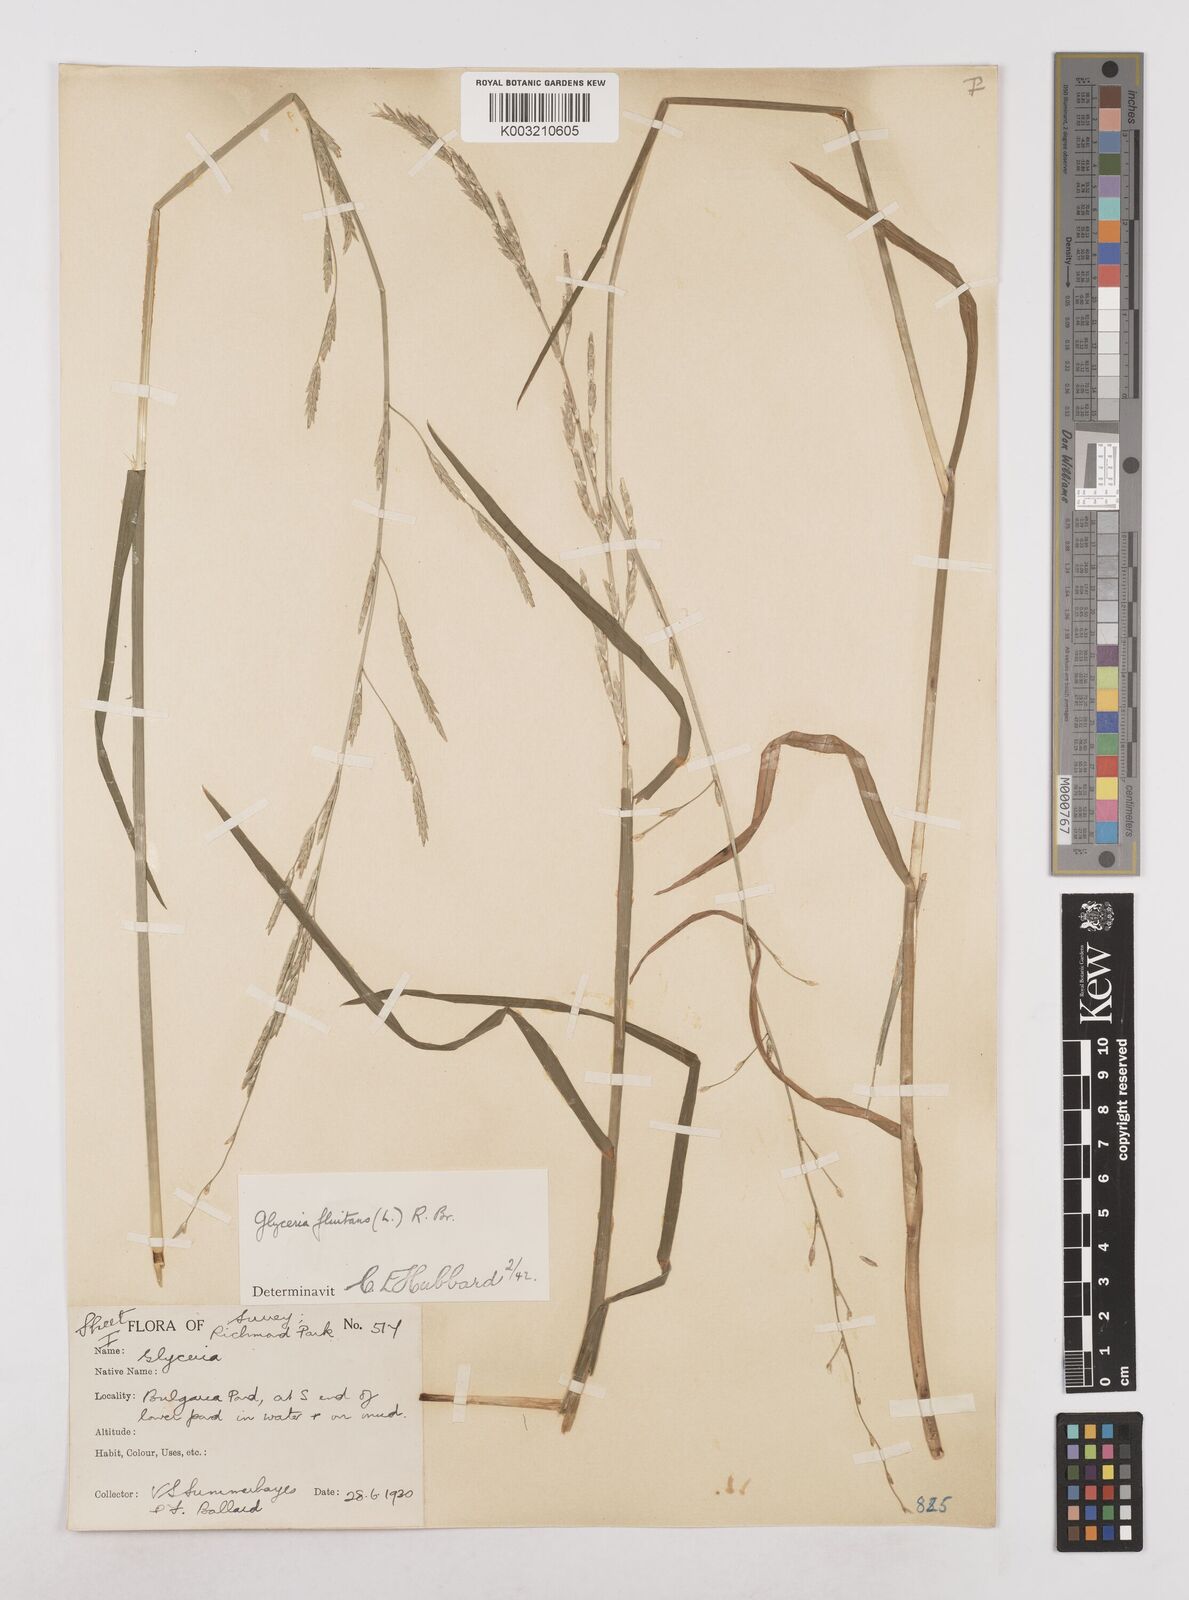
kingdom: Plantae
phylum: Tracheophyta
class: Liliopsida
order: Poales
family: Poaceae
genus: Glyceria
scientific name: Glyceria fluitans
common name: Floating sweet-grass
